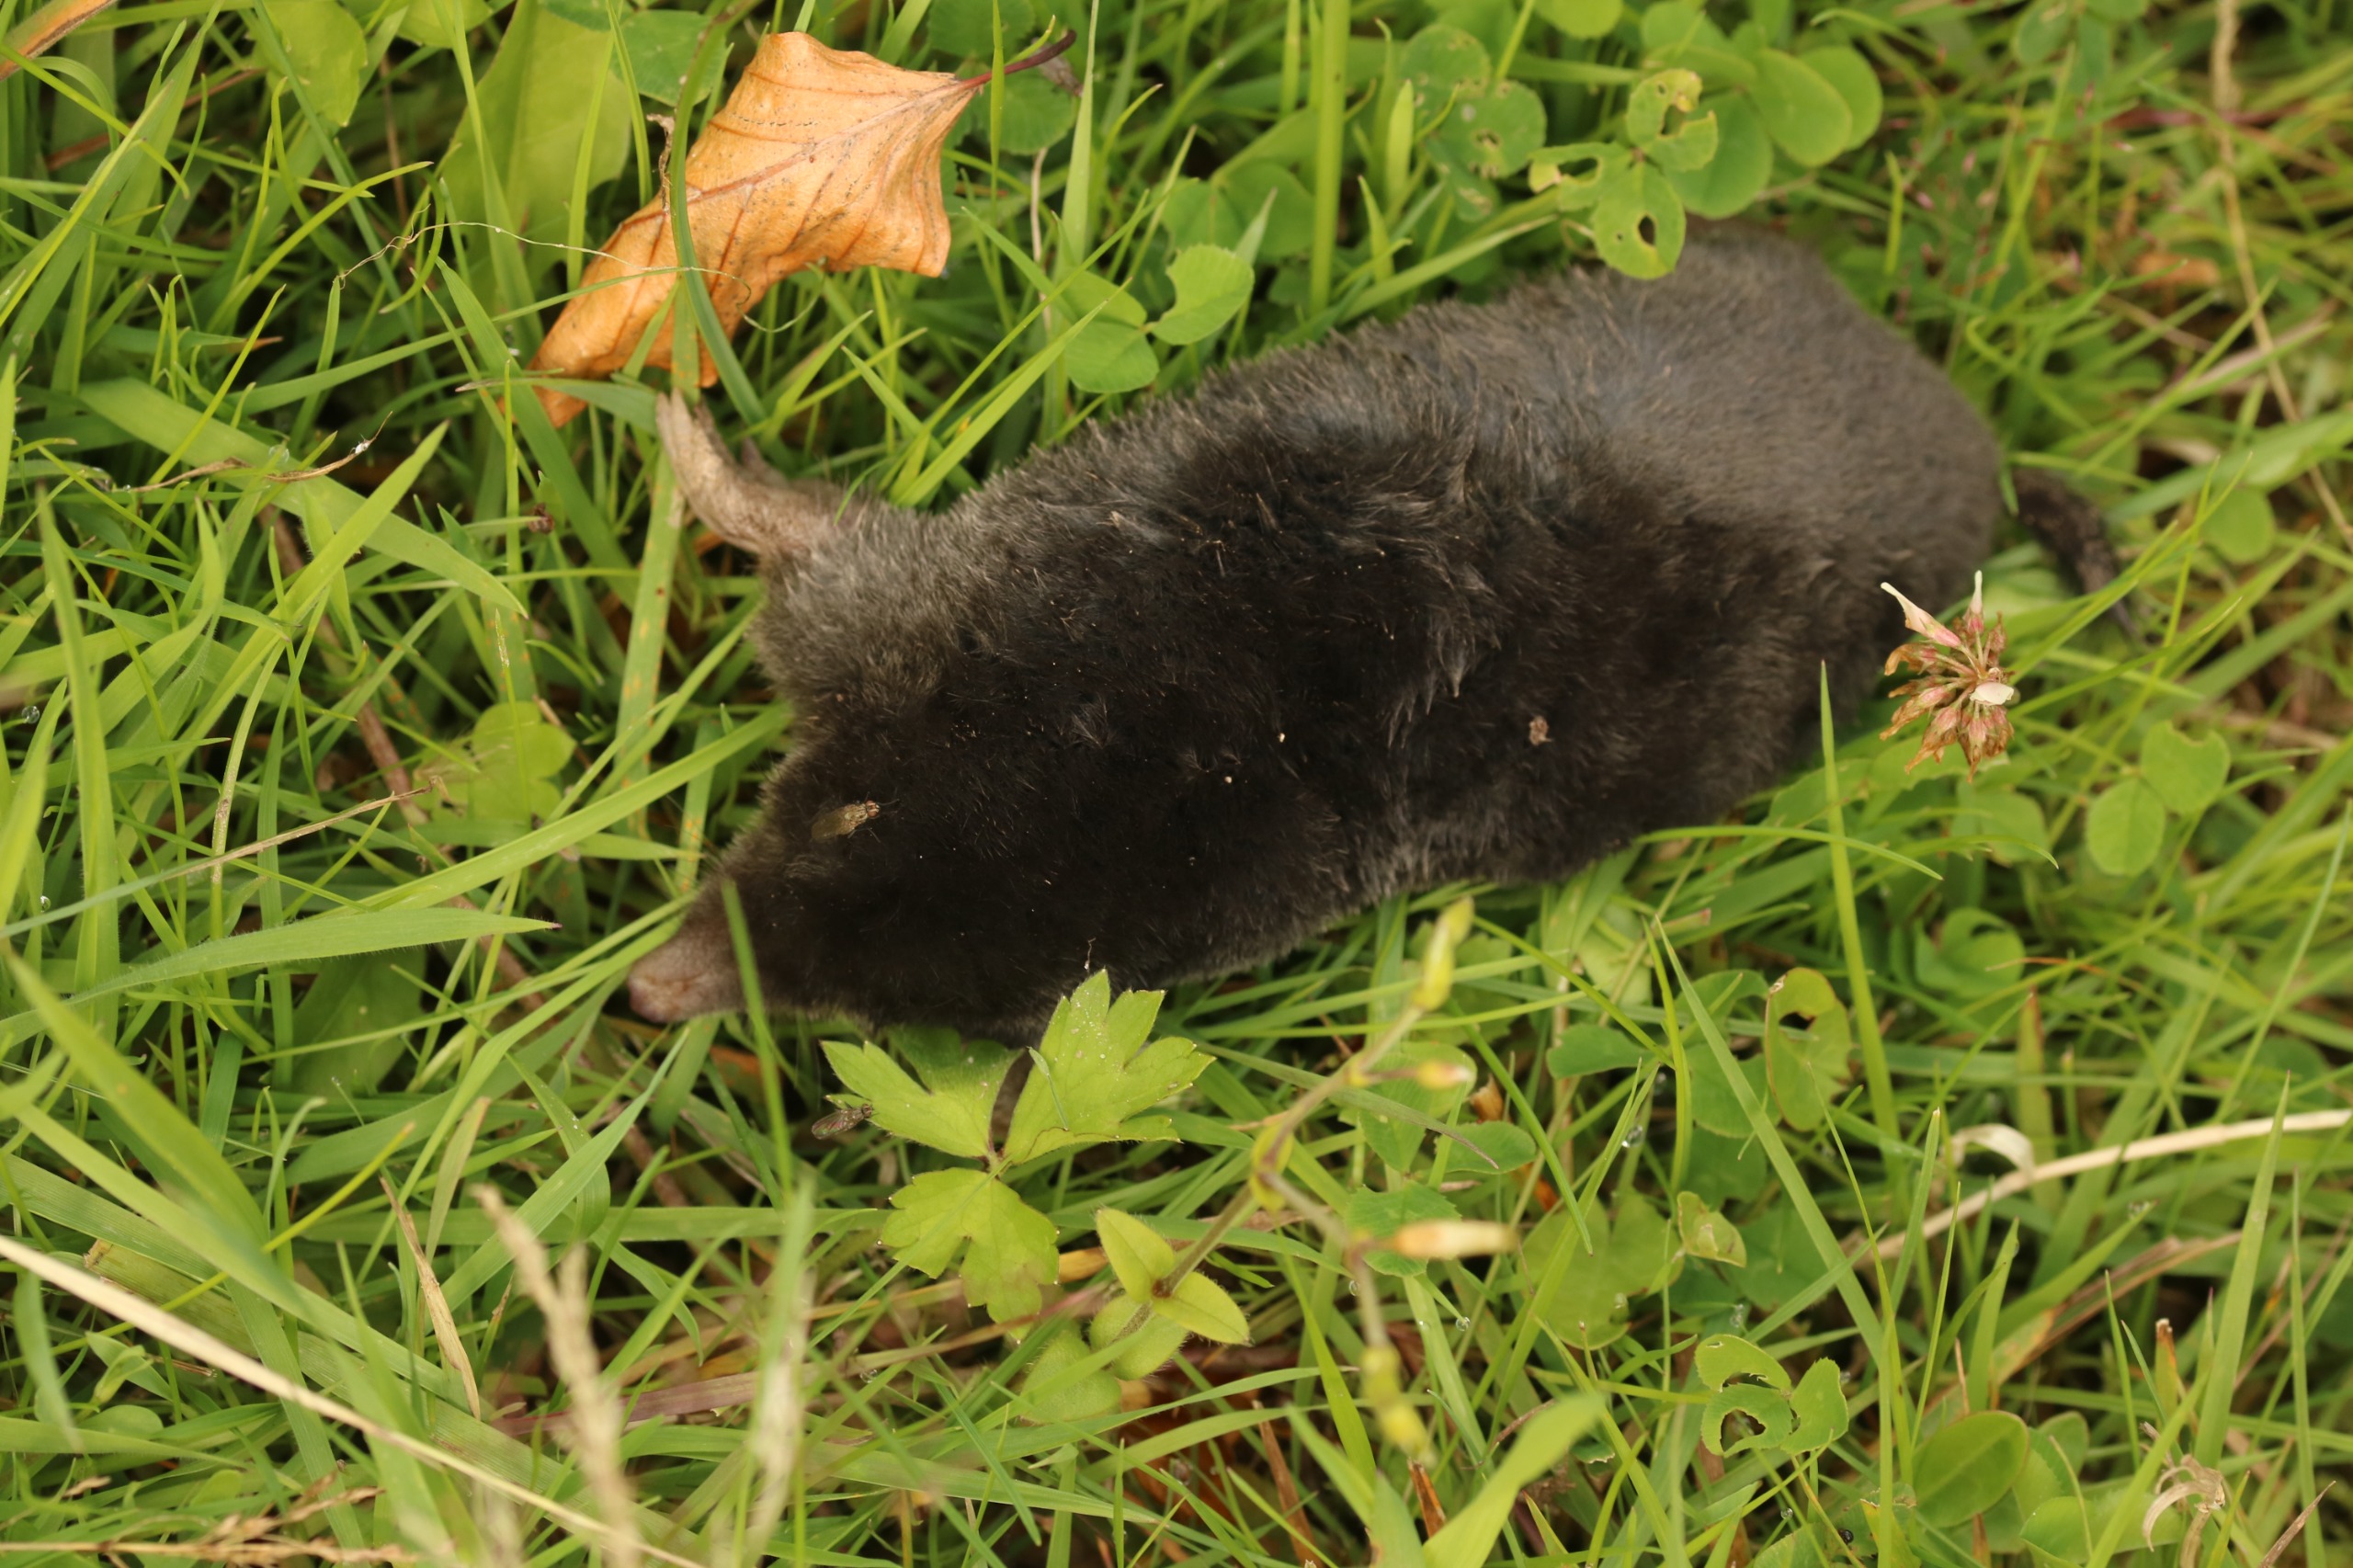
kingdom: Animalia
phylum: Chordata
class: Mammalia
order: Soricomorpha
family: Talpidae
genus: Talpa
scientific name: Talpa europaea
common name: Muldvarp
